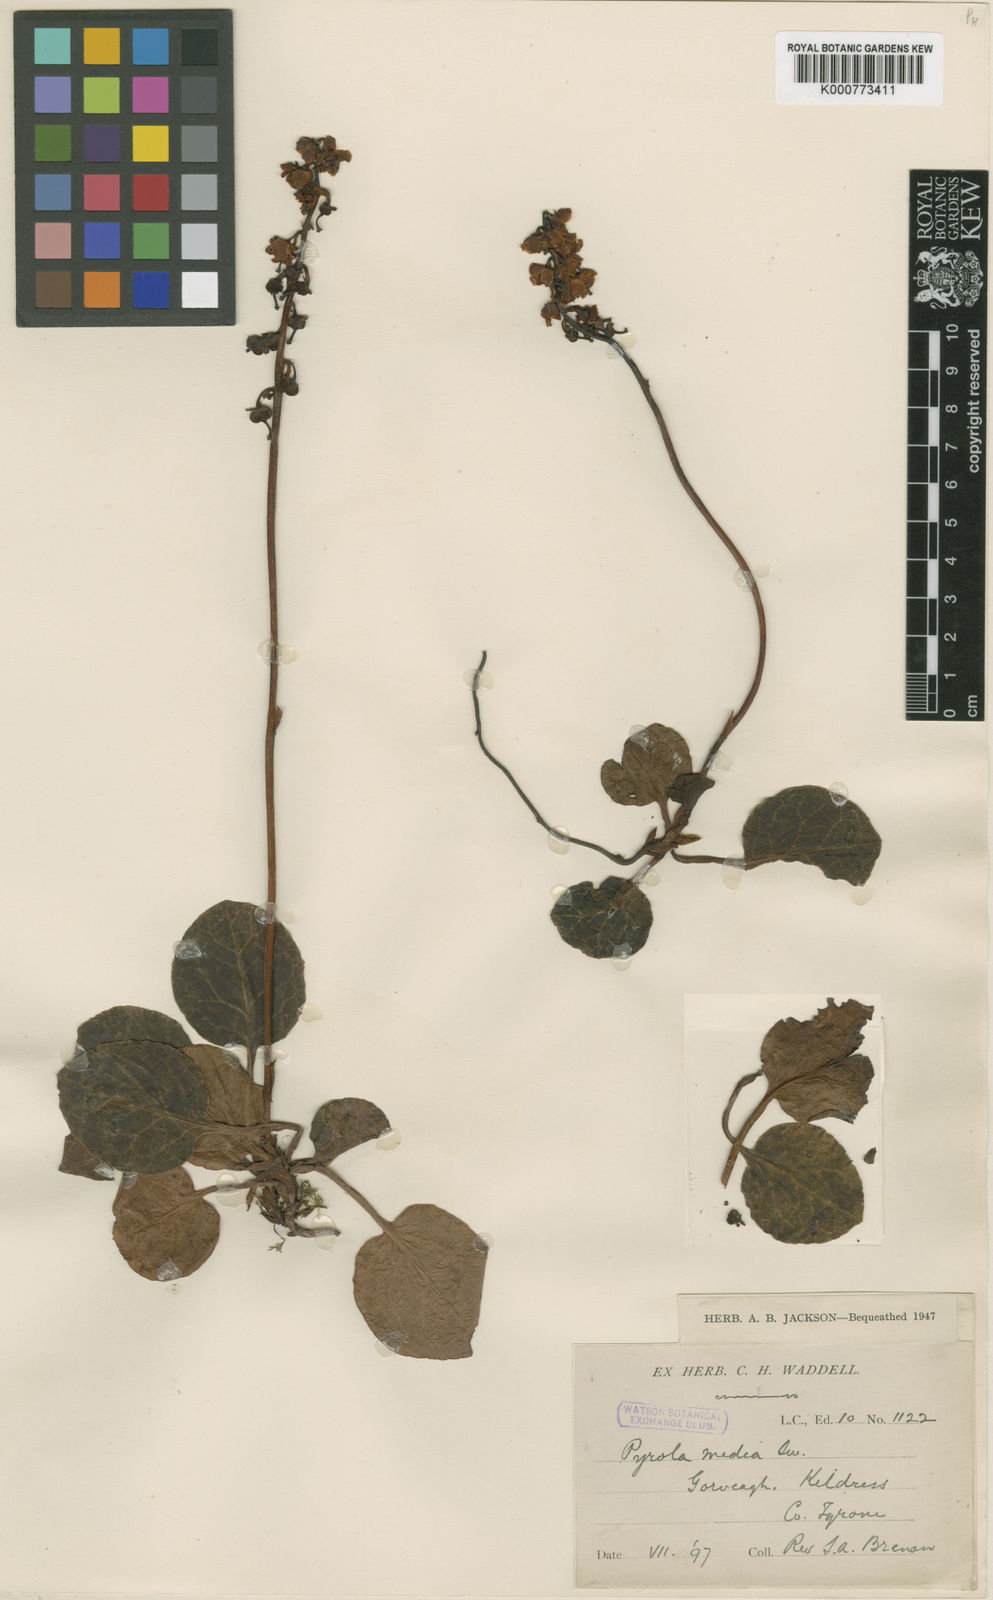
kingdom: Plantae
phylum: Tracheophyta
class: Magnoliopsida
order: Ericales
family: Ericaceae
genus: Pyrola
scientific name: Pyrola media
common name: Intermediate wintergreen
